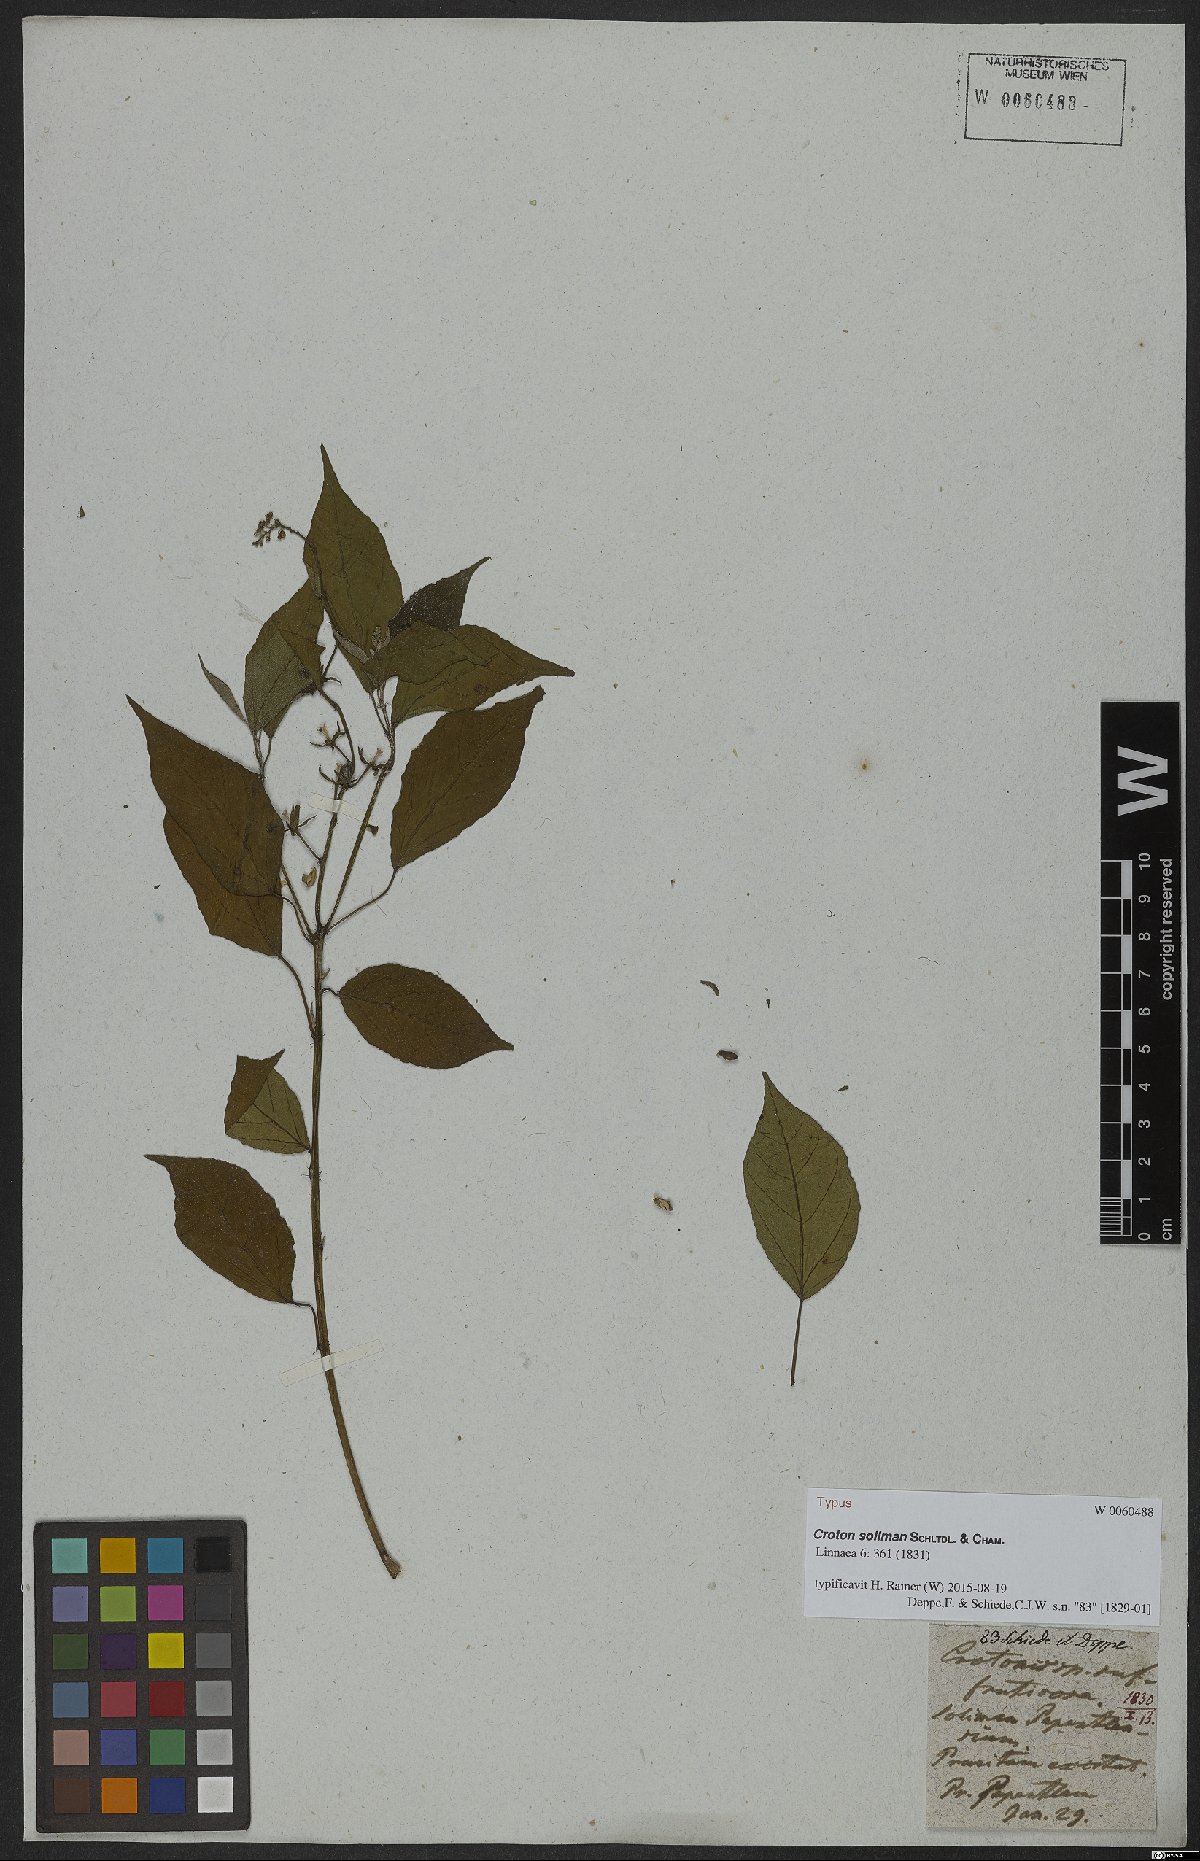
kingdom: Plantae
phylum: Tracheophyta
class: Magnoliopsida
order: Malpighiales
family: Euphorbiaceae
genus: Croton
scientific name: Croton soliman
